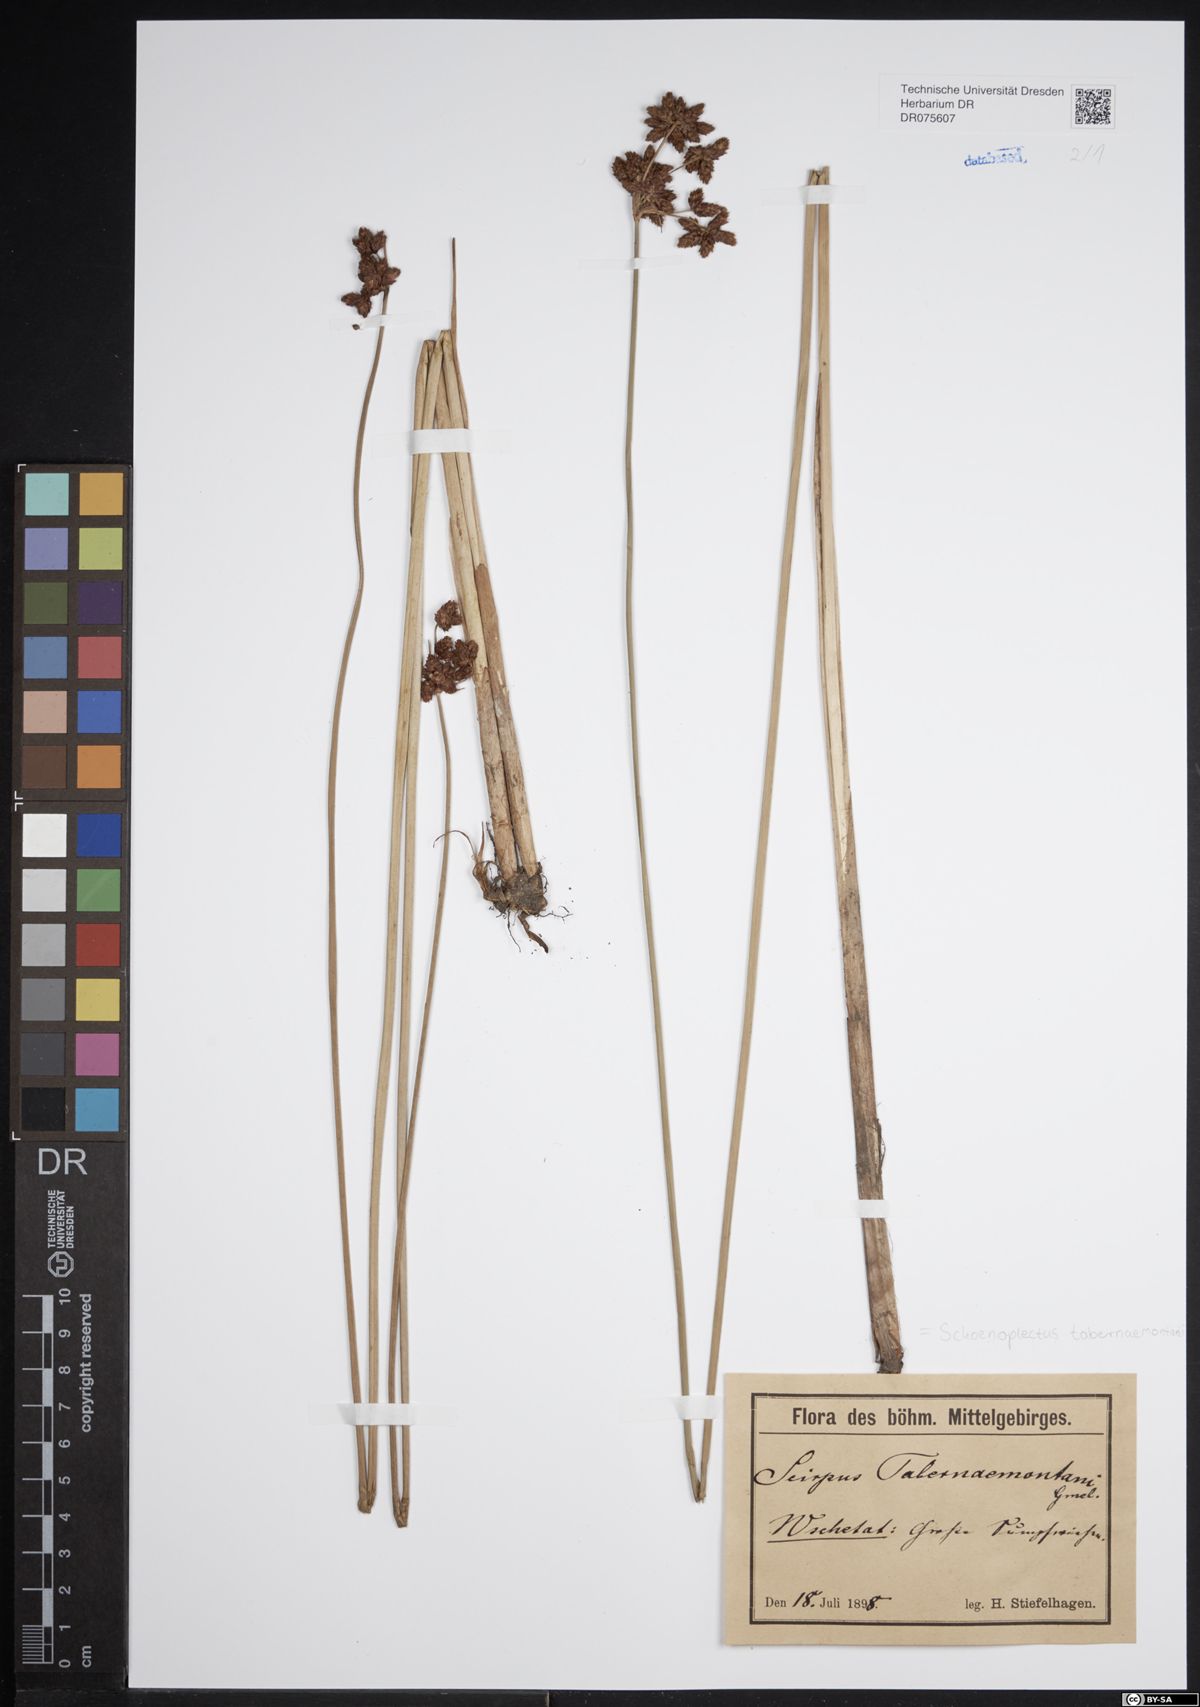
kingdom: Plantae
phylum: Tracheophyta
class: Liliopsida
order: Poales
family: Cyperaceae
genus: Schoenoplectus
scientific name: Schoenoplectus tabernaemontani
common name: Grey club-rush
